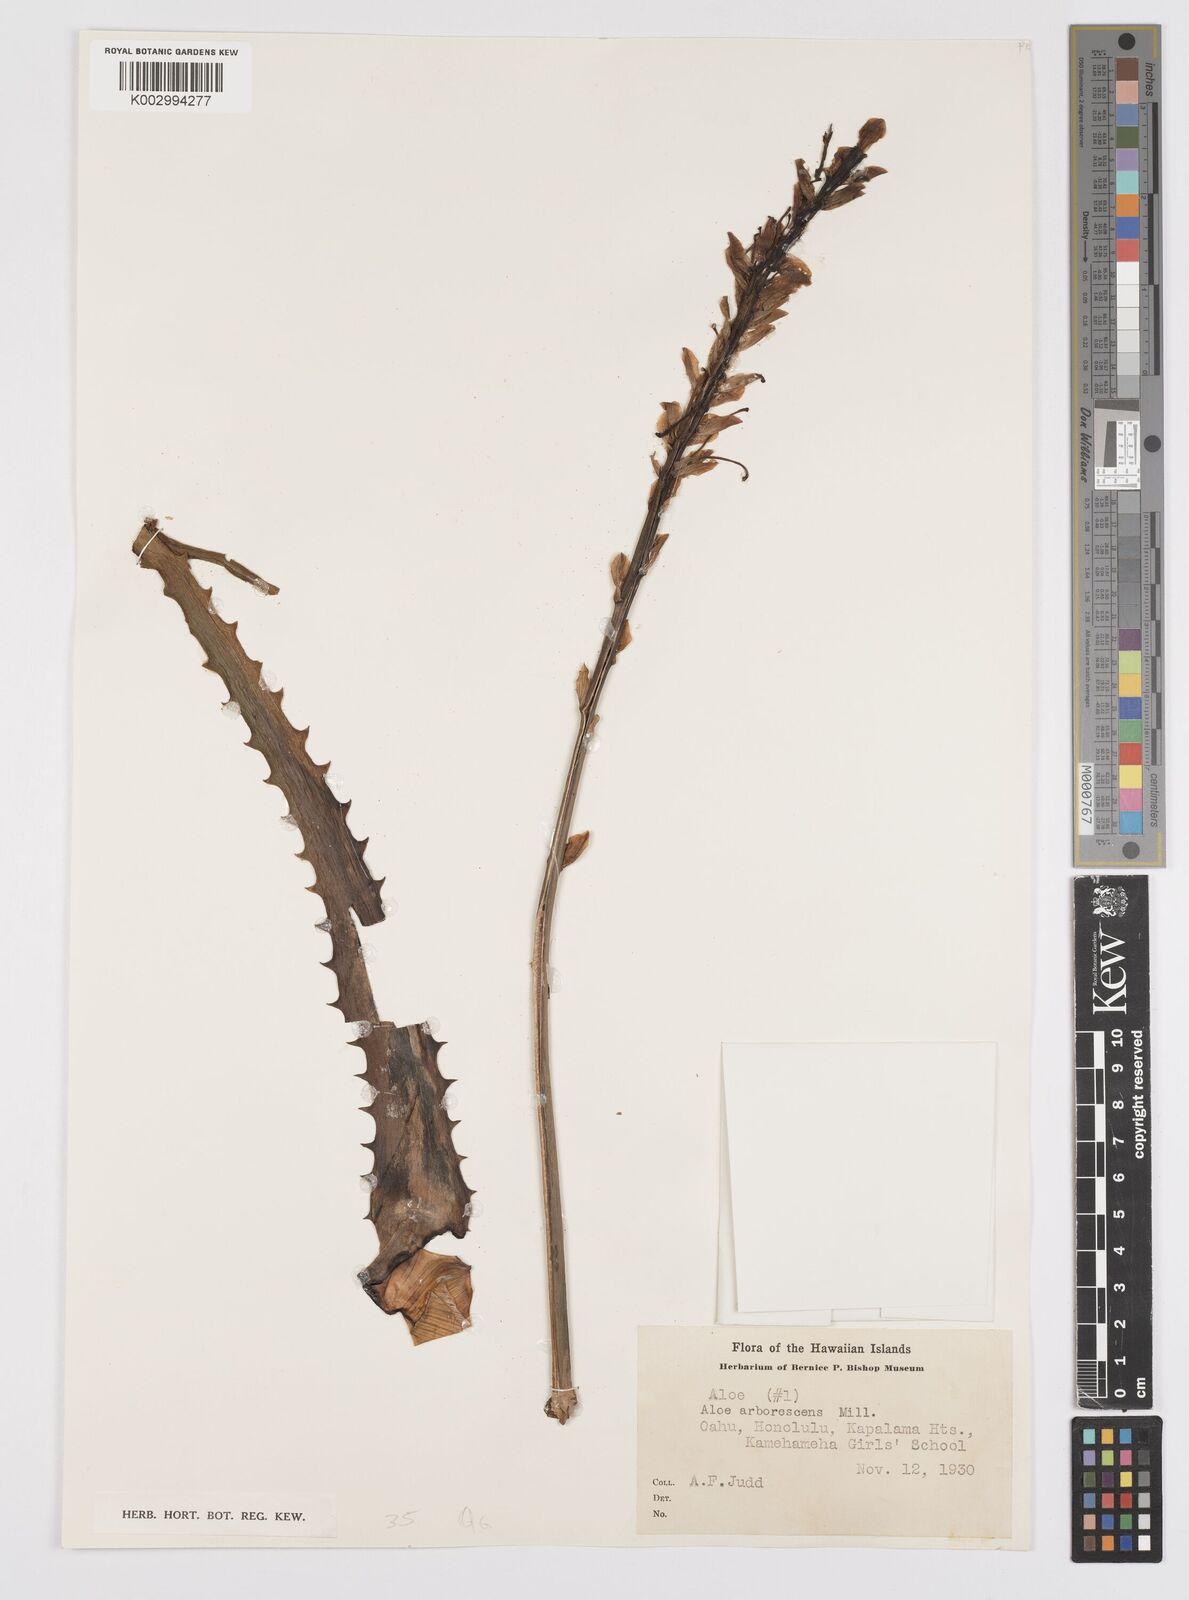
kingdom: Plantae
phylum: Tracheophyta
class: Liliopsida
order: Asparagales
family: Asphodelaceae
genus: Aloe
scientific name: Aloe arborescens
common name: Candelabra aloe
